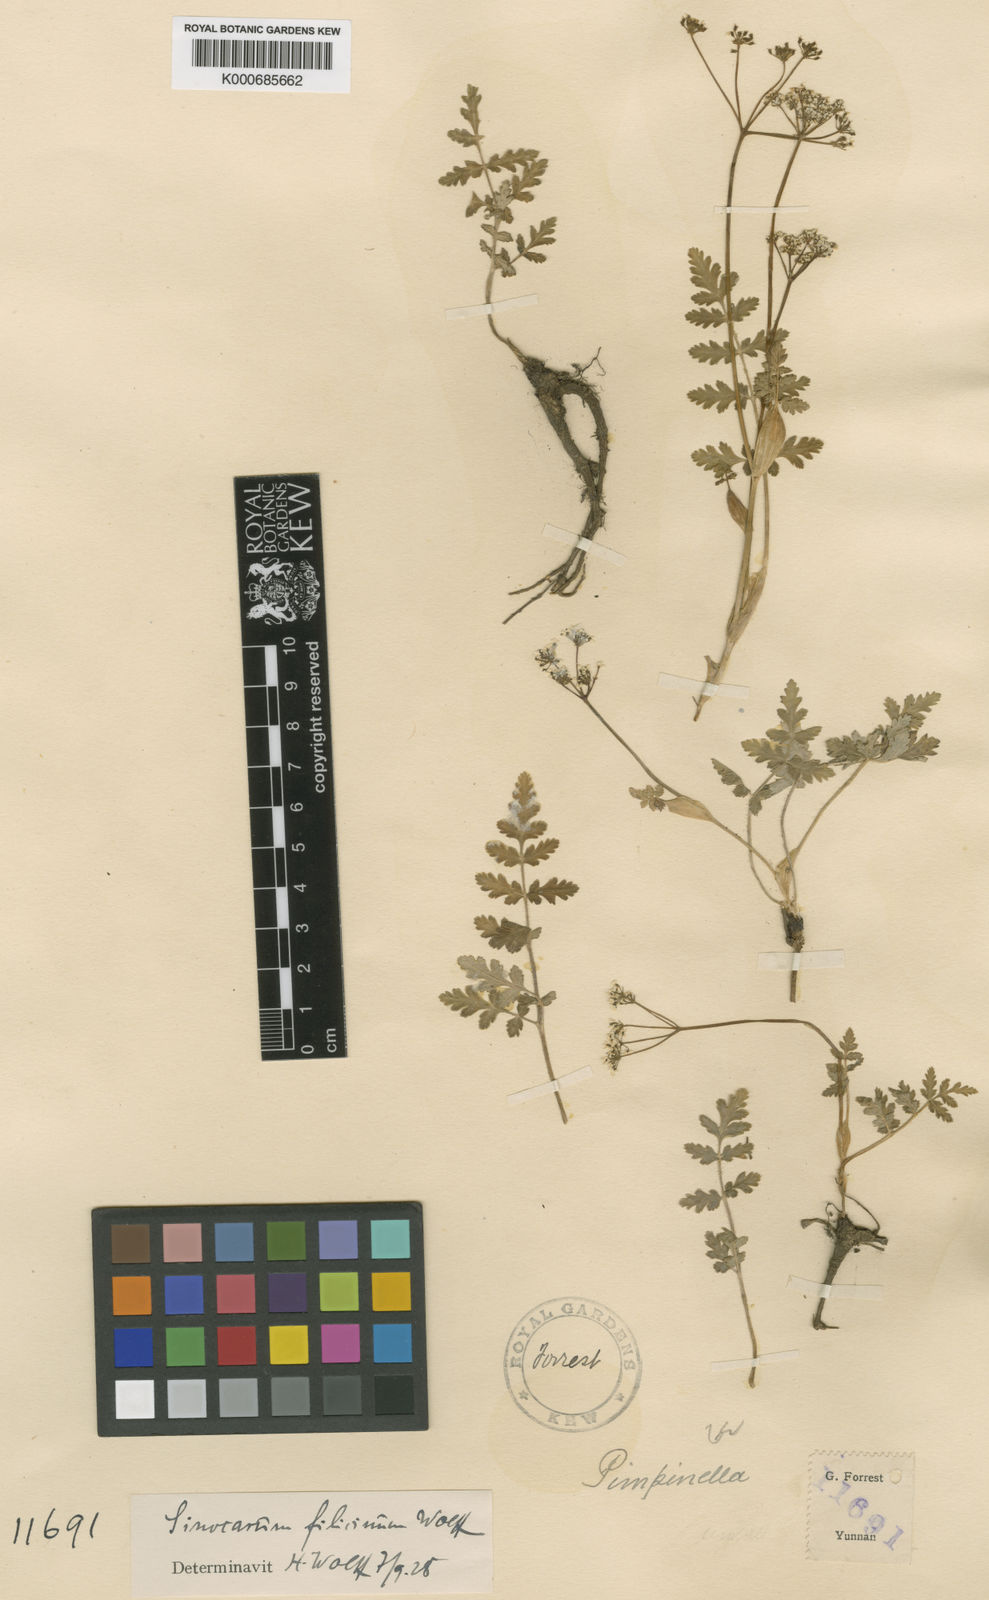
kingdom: Plantae
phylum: Tracheophyta
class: Magnoliopsida
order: Apiales
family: Apiaceae
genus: Pternopetalum
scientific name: Pternopetalum tanakae
